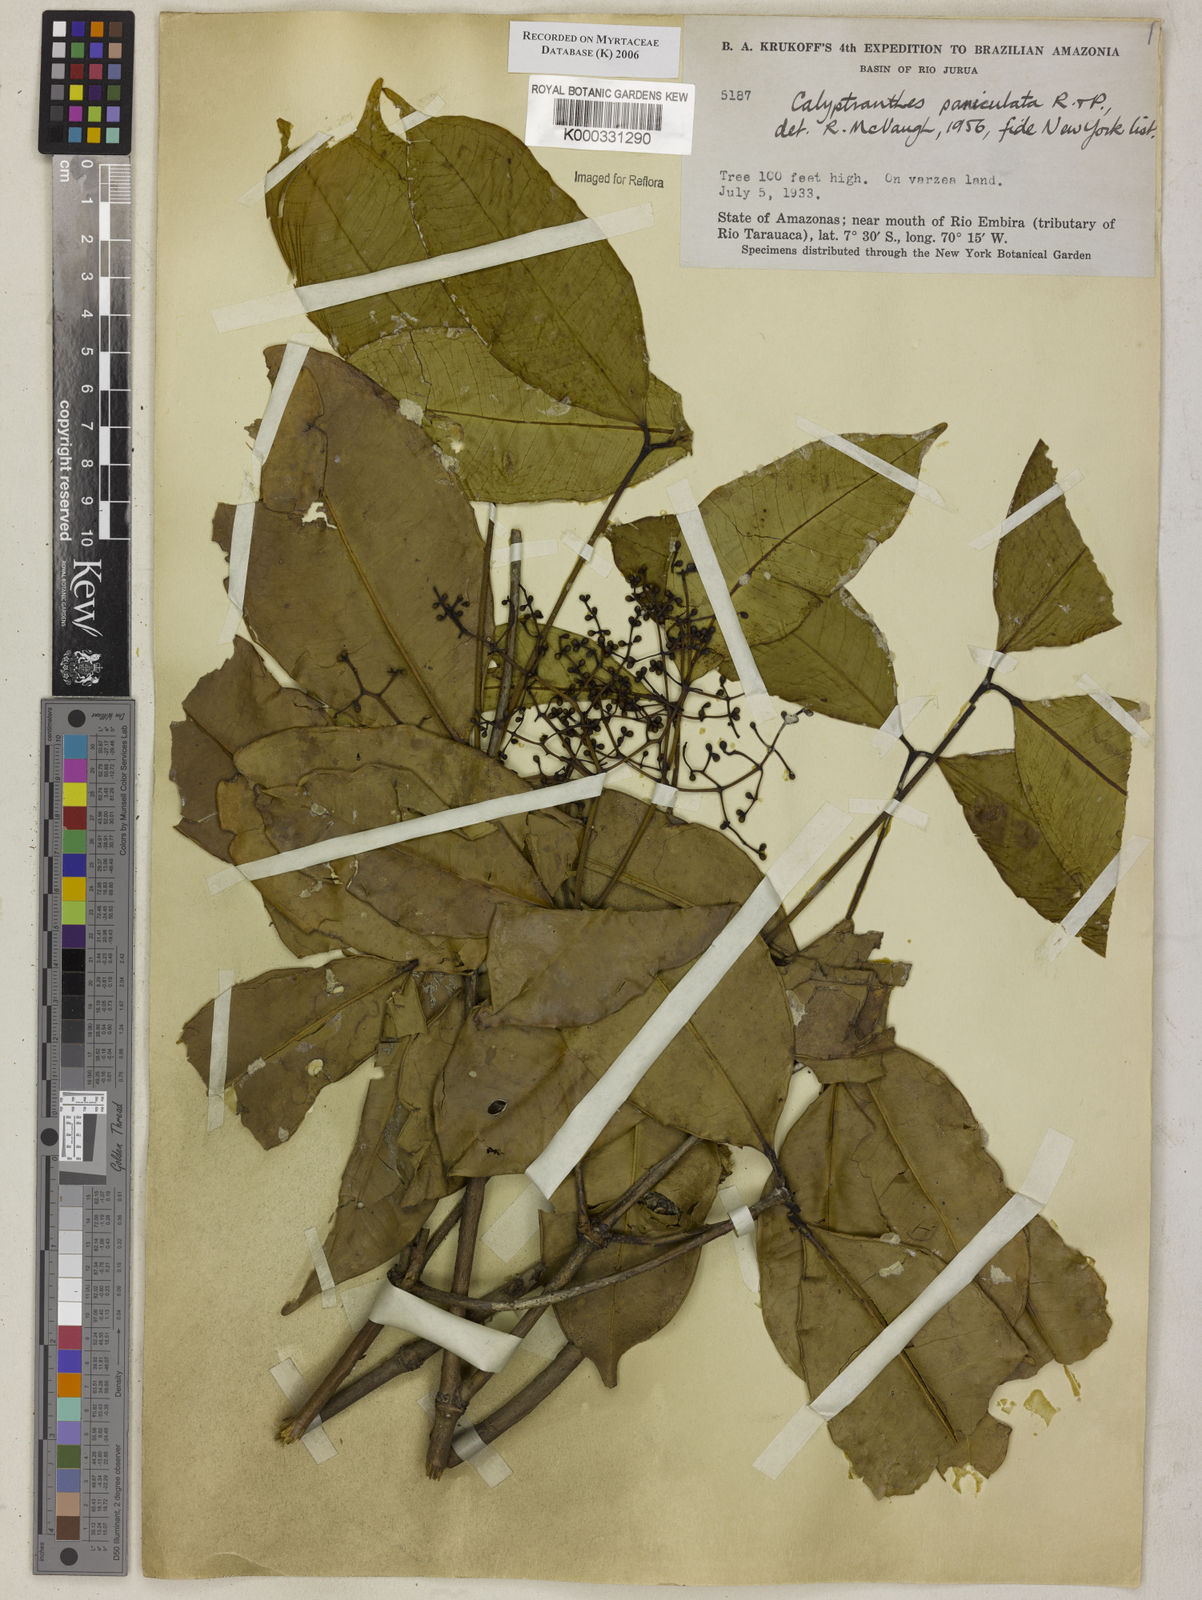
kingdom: Plantae
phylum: Tracheophyta
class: Magnoliopsida
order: Myrtales
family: Myrtaceae
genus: Calyptranthes
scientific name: Calyptranthes
